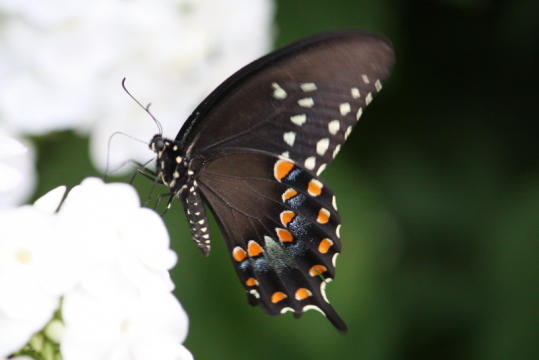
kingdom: Animalia
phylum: Arthropoda
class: Insecta
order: Lepidoptera
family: Papilionidae
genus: Pterourus
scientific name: Pterourus troilus
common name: Spicebush Swallowtail
